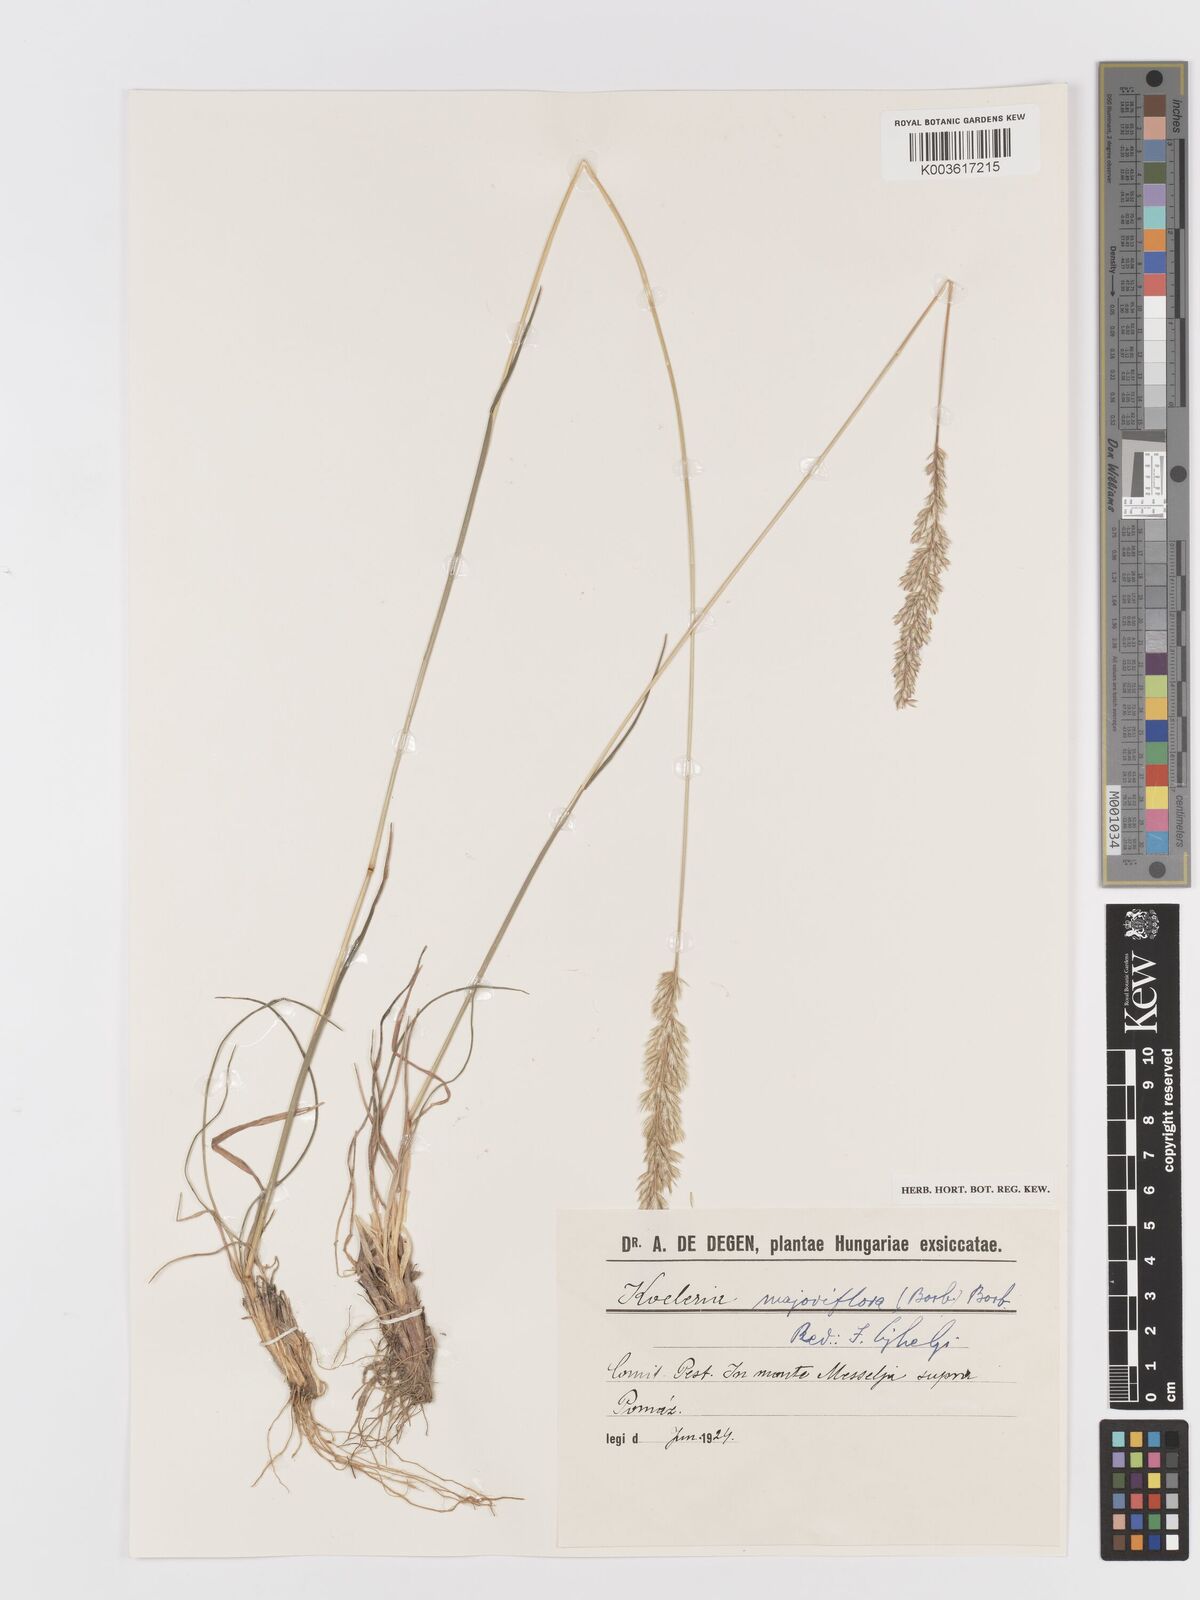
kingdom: Plantae
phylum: Tracheophyta
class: Liliopsida
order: Poales
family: Poaceae
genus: Koeleria
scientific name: Koeleria macrantha
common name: Crested hair-grass
